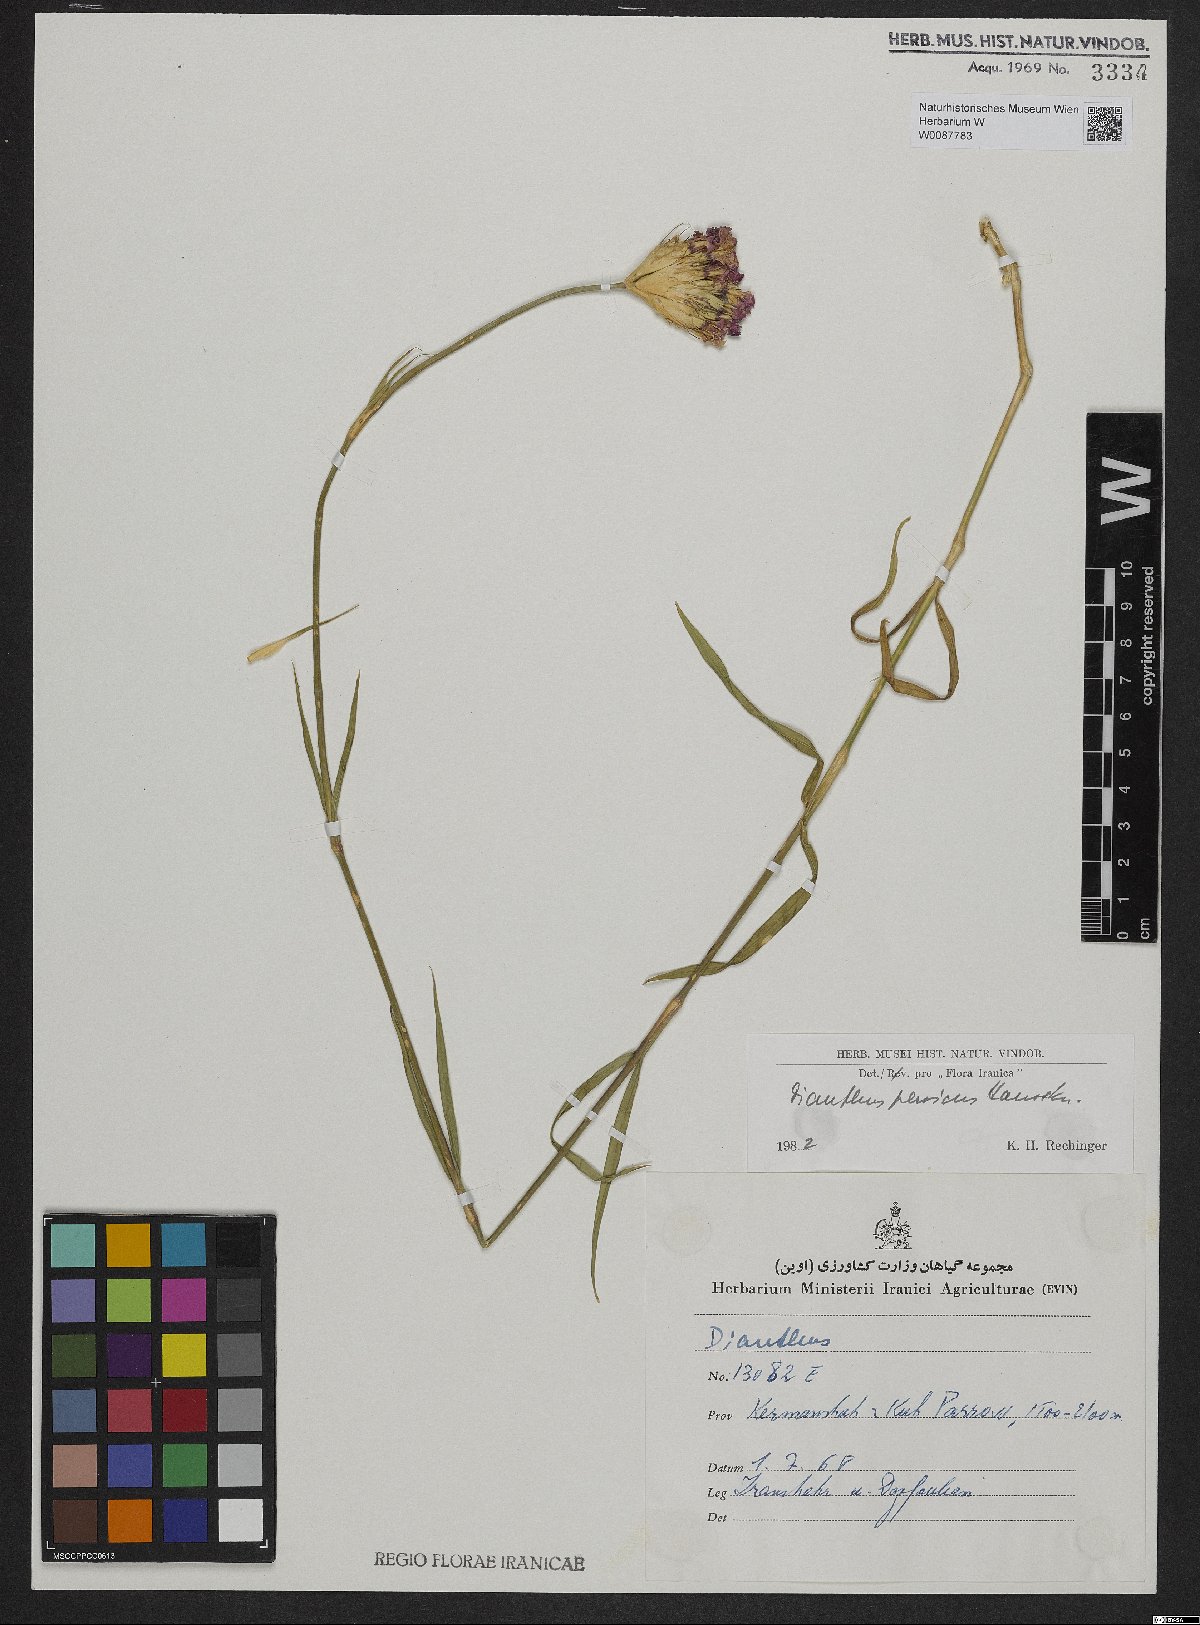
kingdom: Plantae
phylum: Tracheophyta
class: Magnoliopsida
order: Caryophyllales
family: Caryophyllaceae
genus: Dianthus
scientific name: Dianthus persicus
